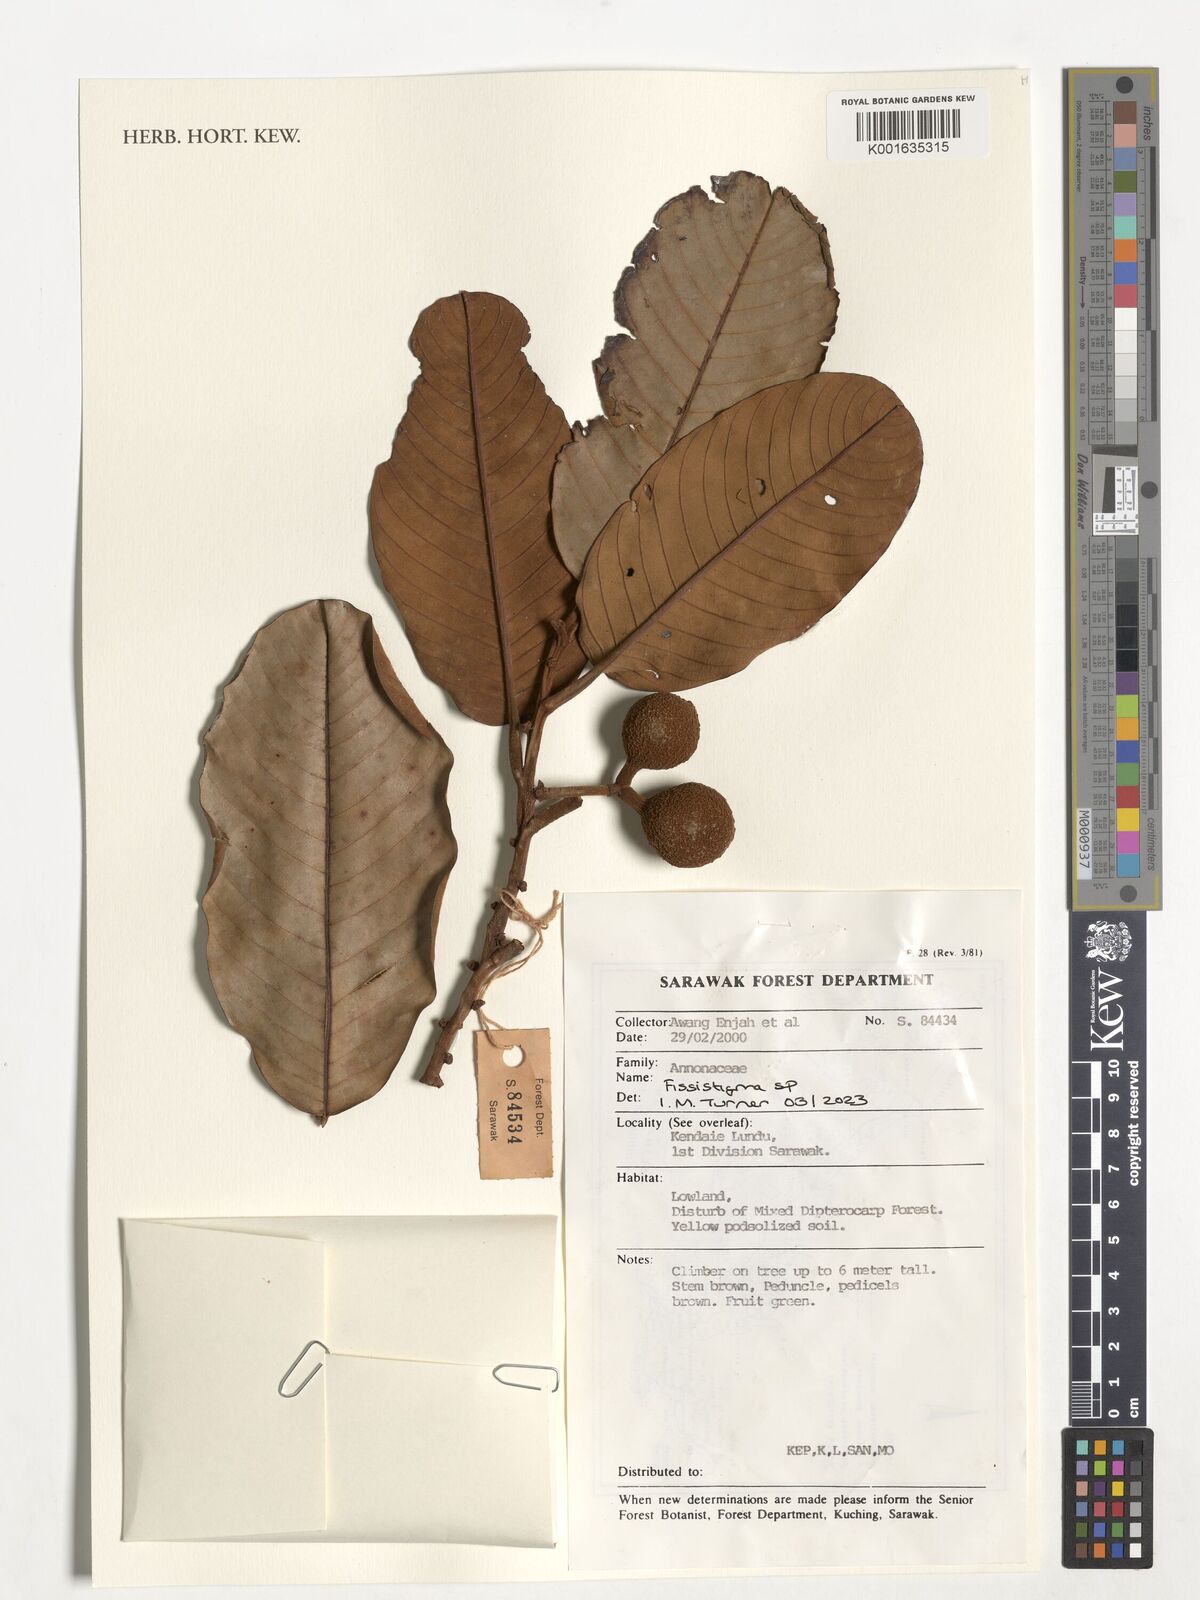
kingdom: Plantae
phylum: Tracheophyta
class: Magnoliopsida
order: Magnoliales
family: Annonaceae
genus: Fissistigma
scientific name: Fissistigma
